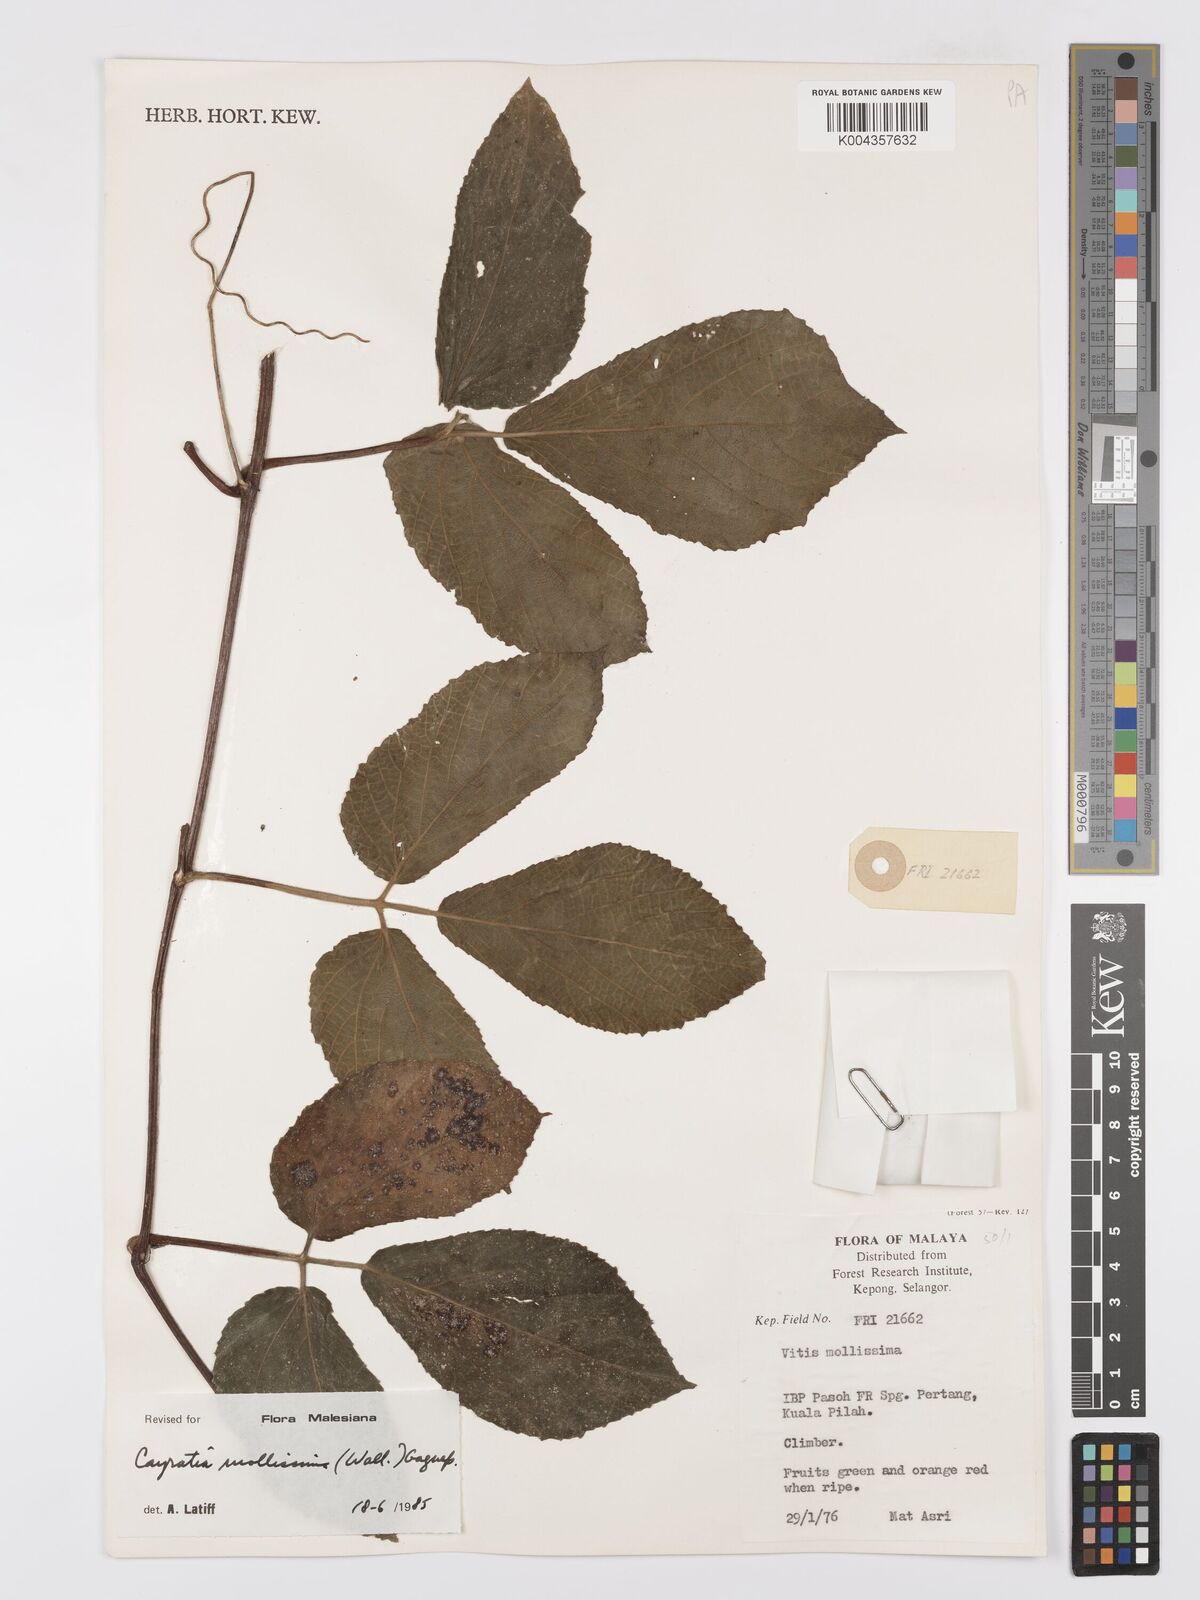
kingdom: Plantae
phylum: Tracheophyta
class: Magnoliopsida
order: Vitales
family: Vitaceae
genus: Cayratia
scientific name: Cayratia mollissima
